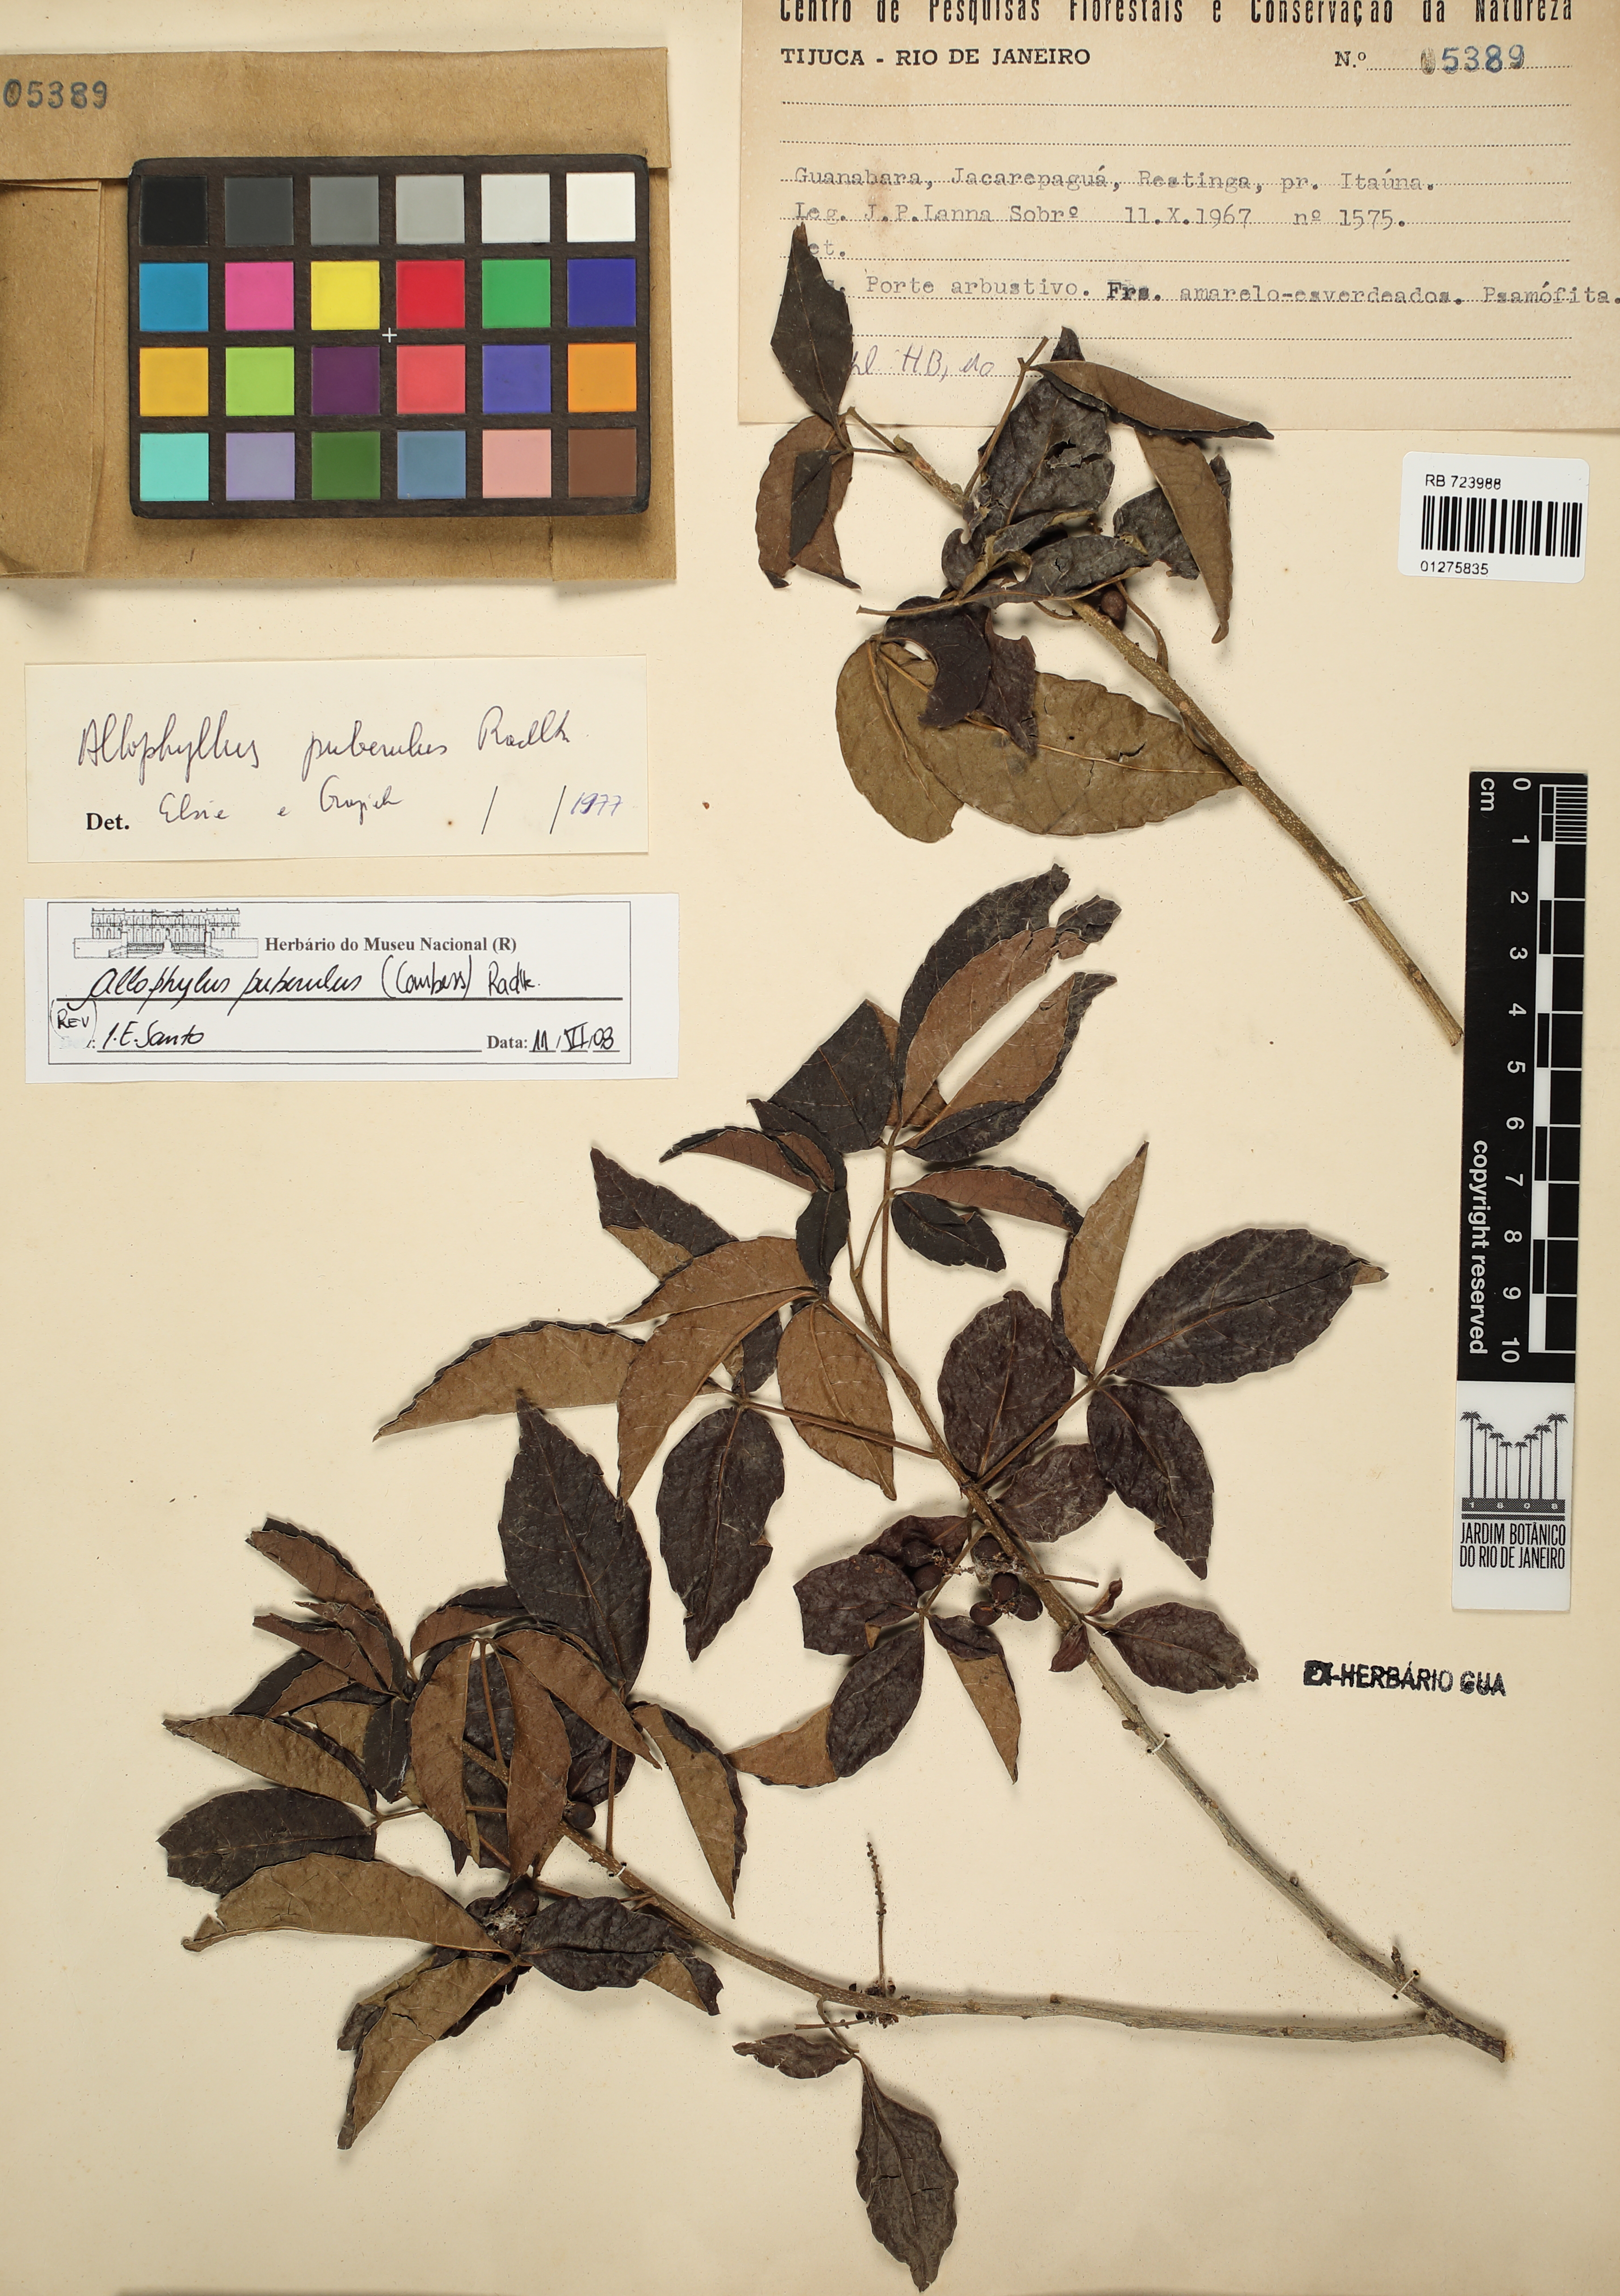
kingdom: Plantae
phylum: Tracheophyta
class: Magnoliopsida
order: Sapindales
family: Sapindaceae
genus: Allophylus
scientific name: Allophylus puberulus
